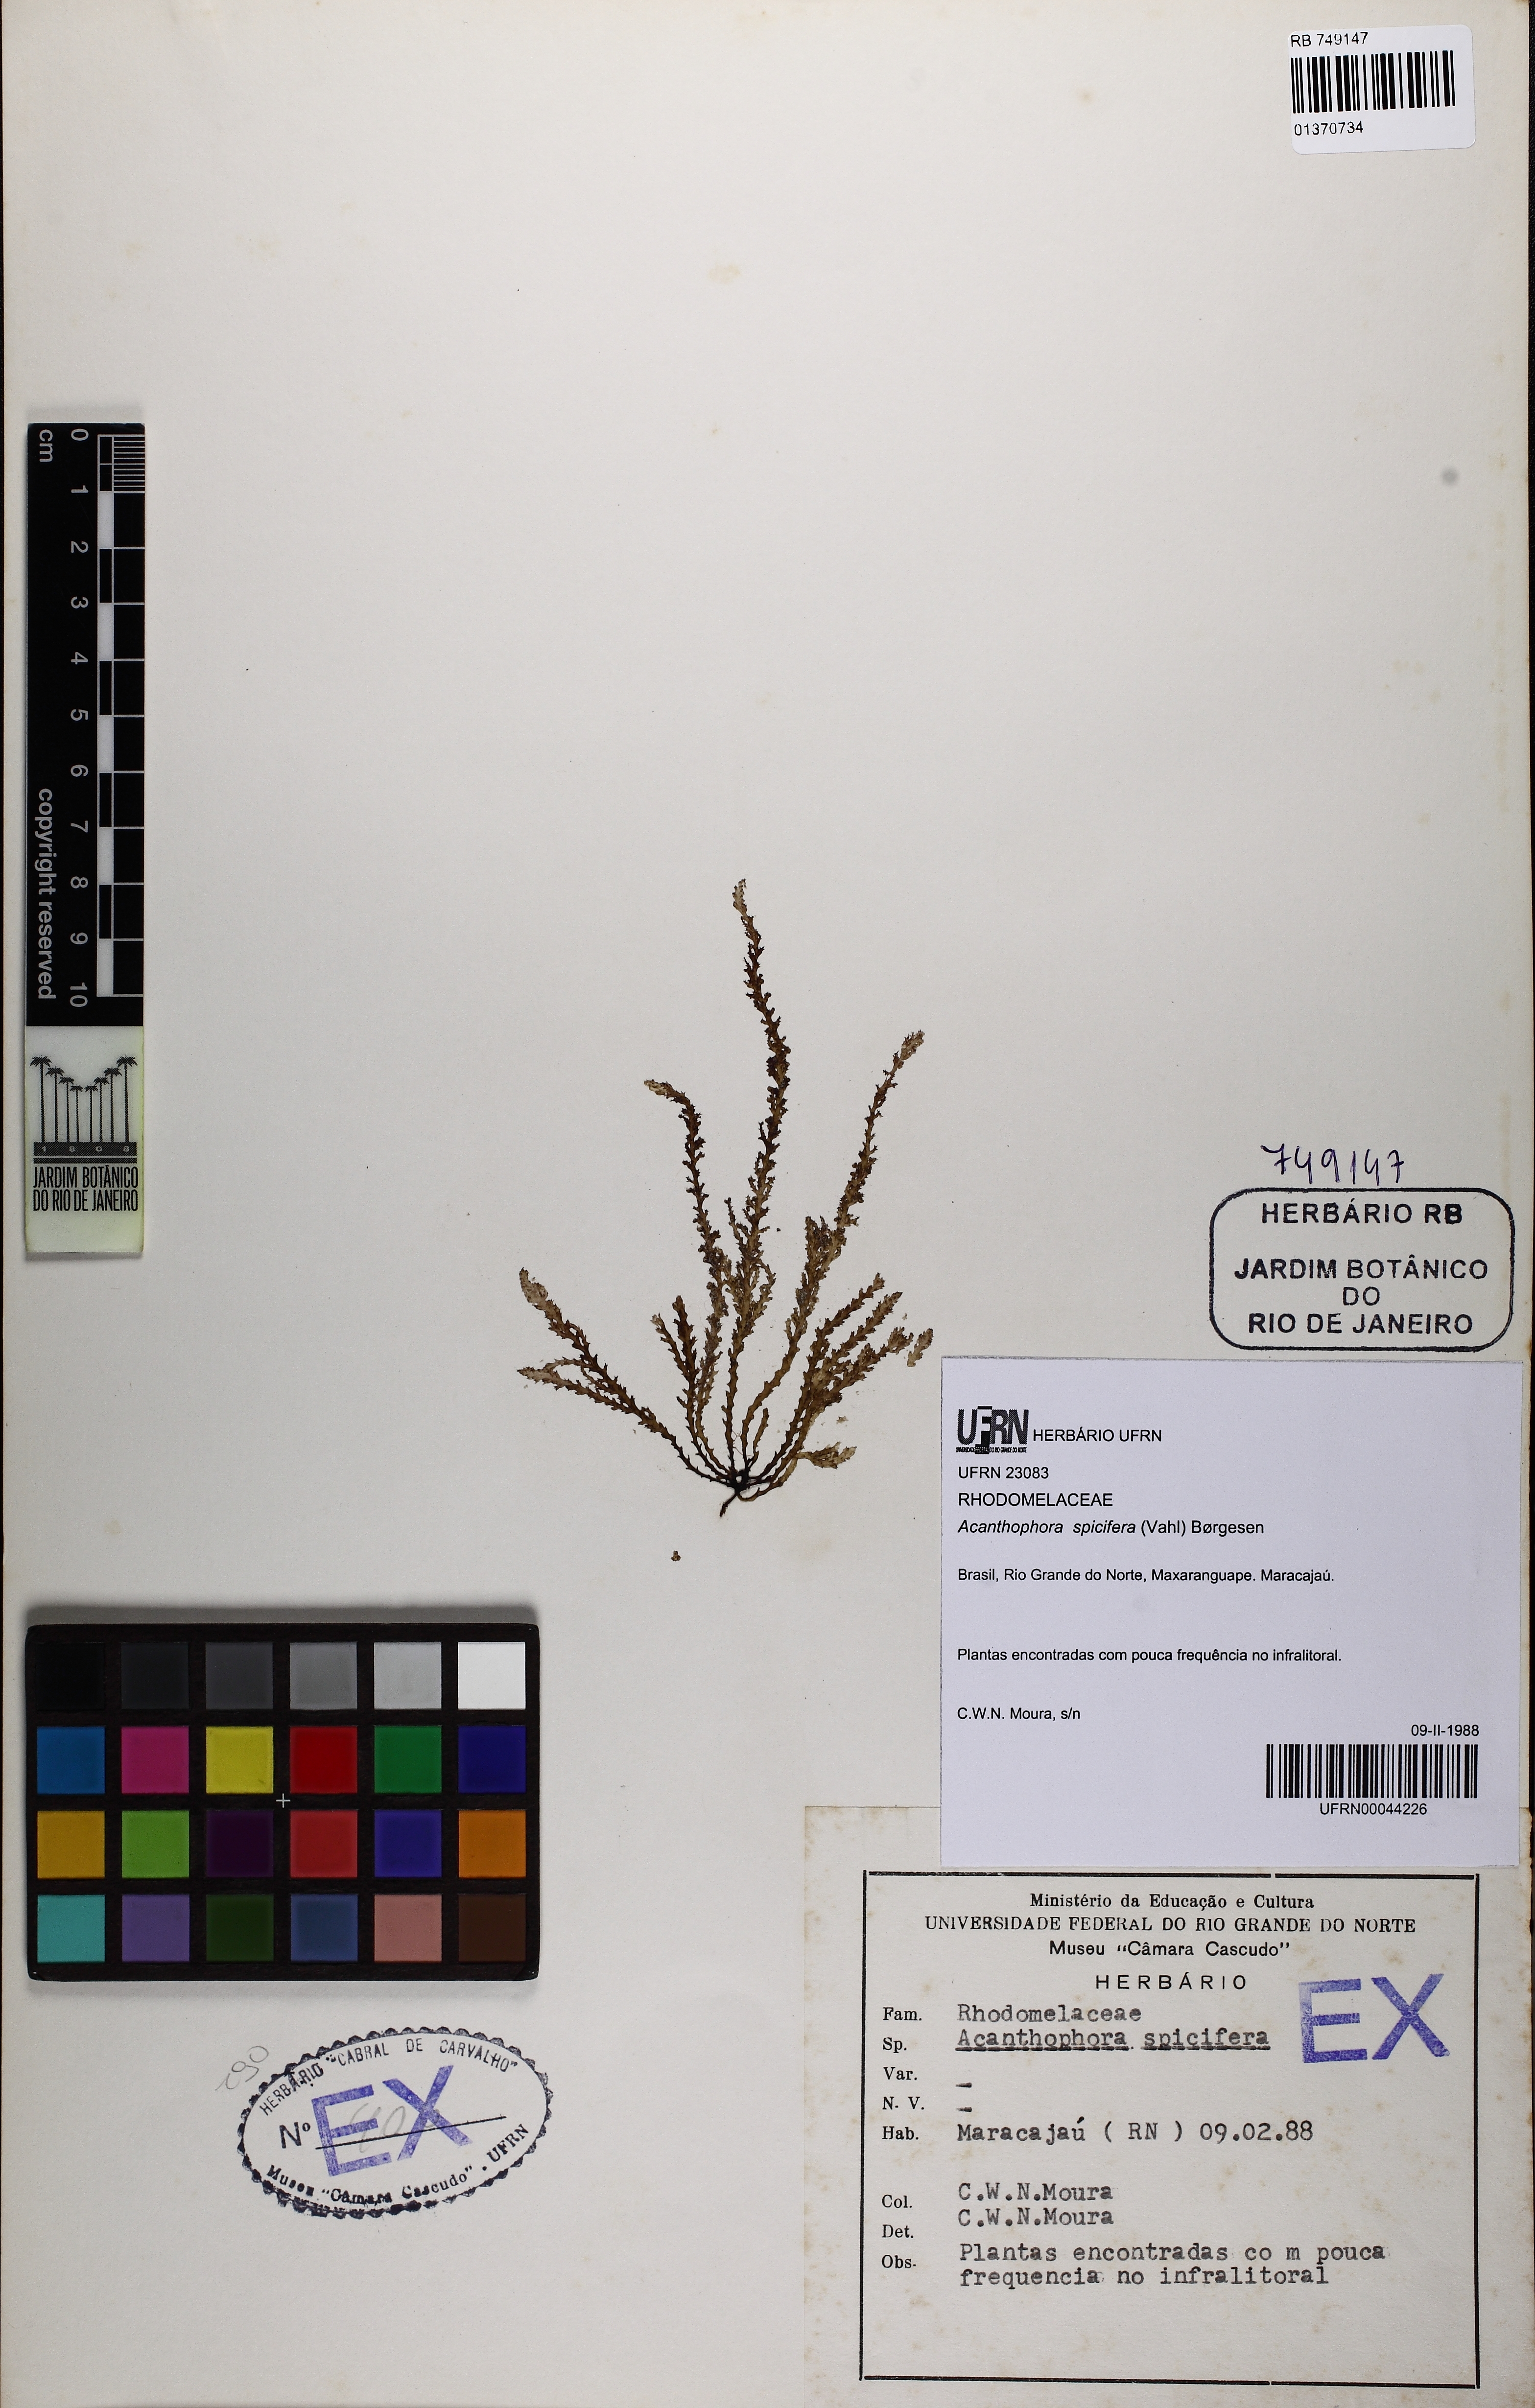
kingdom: Plantae
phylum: Rhodophyta
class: Florideophyceae
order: Ceramiales
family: Rhodomelaceae
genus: Acanthophora
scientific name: Acanthophora spicifera
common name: Red algae
